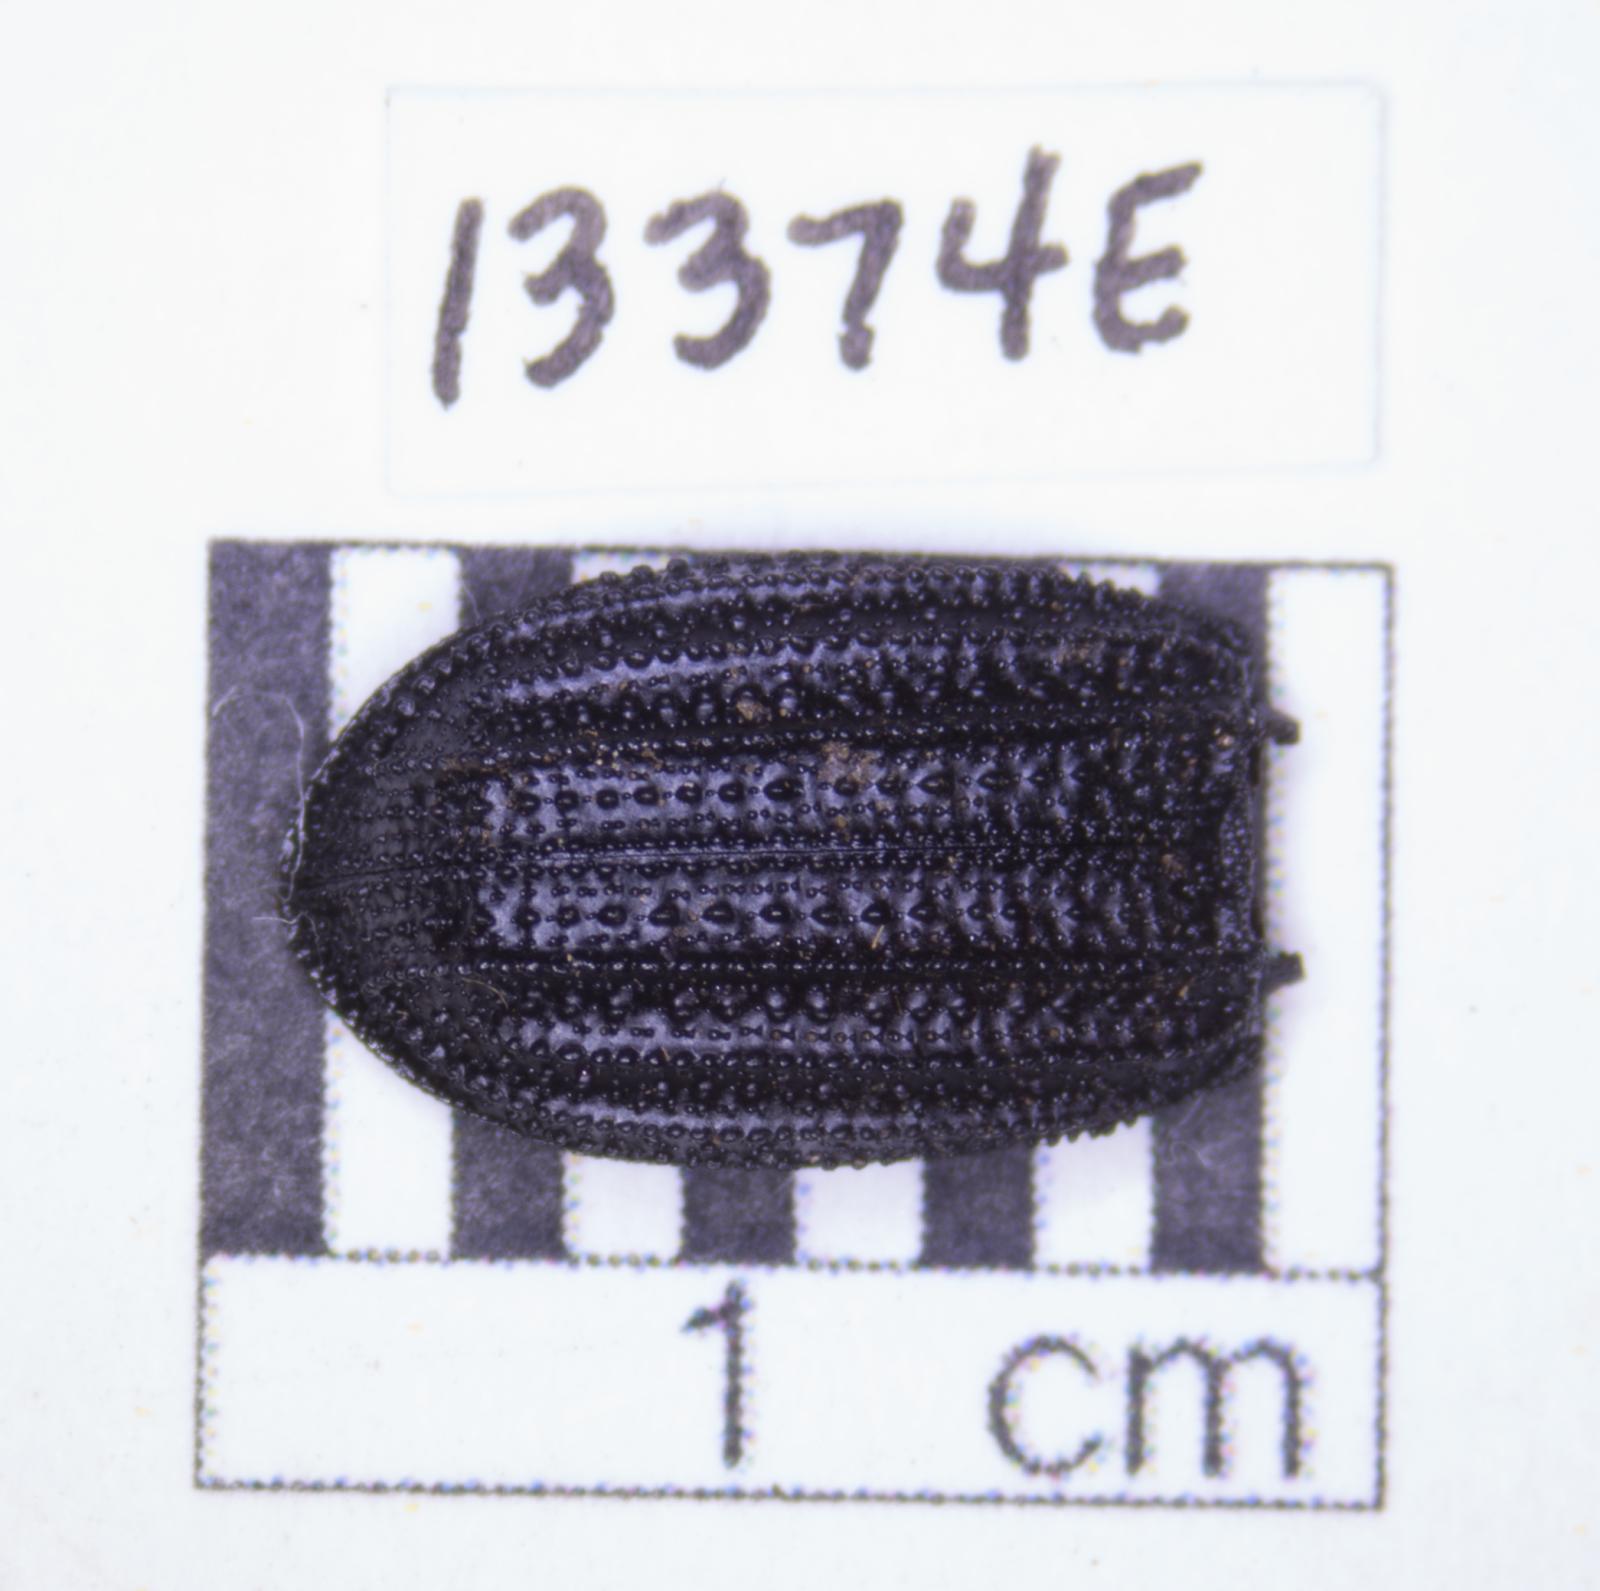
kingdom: Animalia
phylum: Arthropoda
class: Insecta
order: Coleoptera
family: Tenebrionidae
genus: Nyctoporis
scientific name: Nyctoporis carinata
